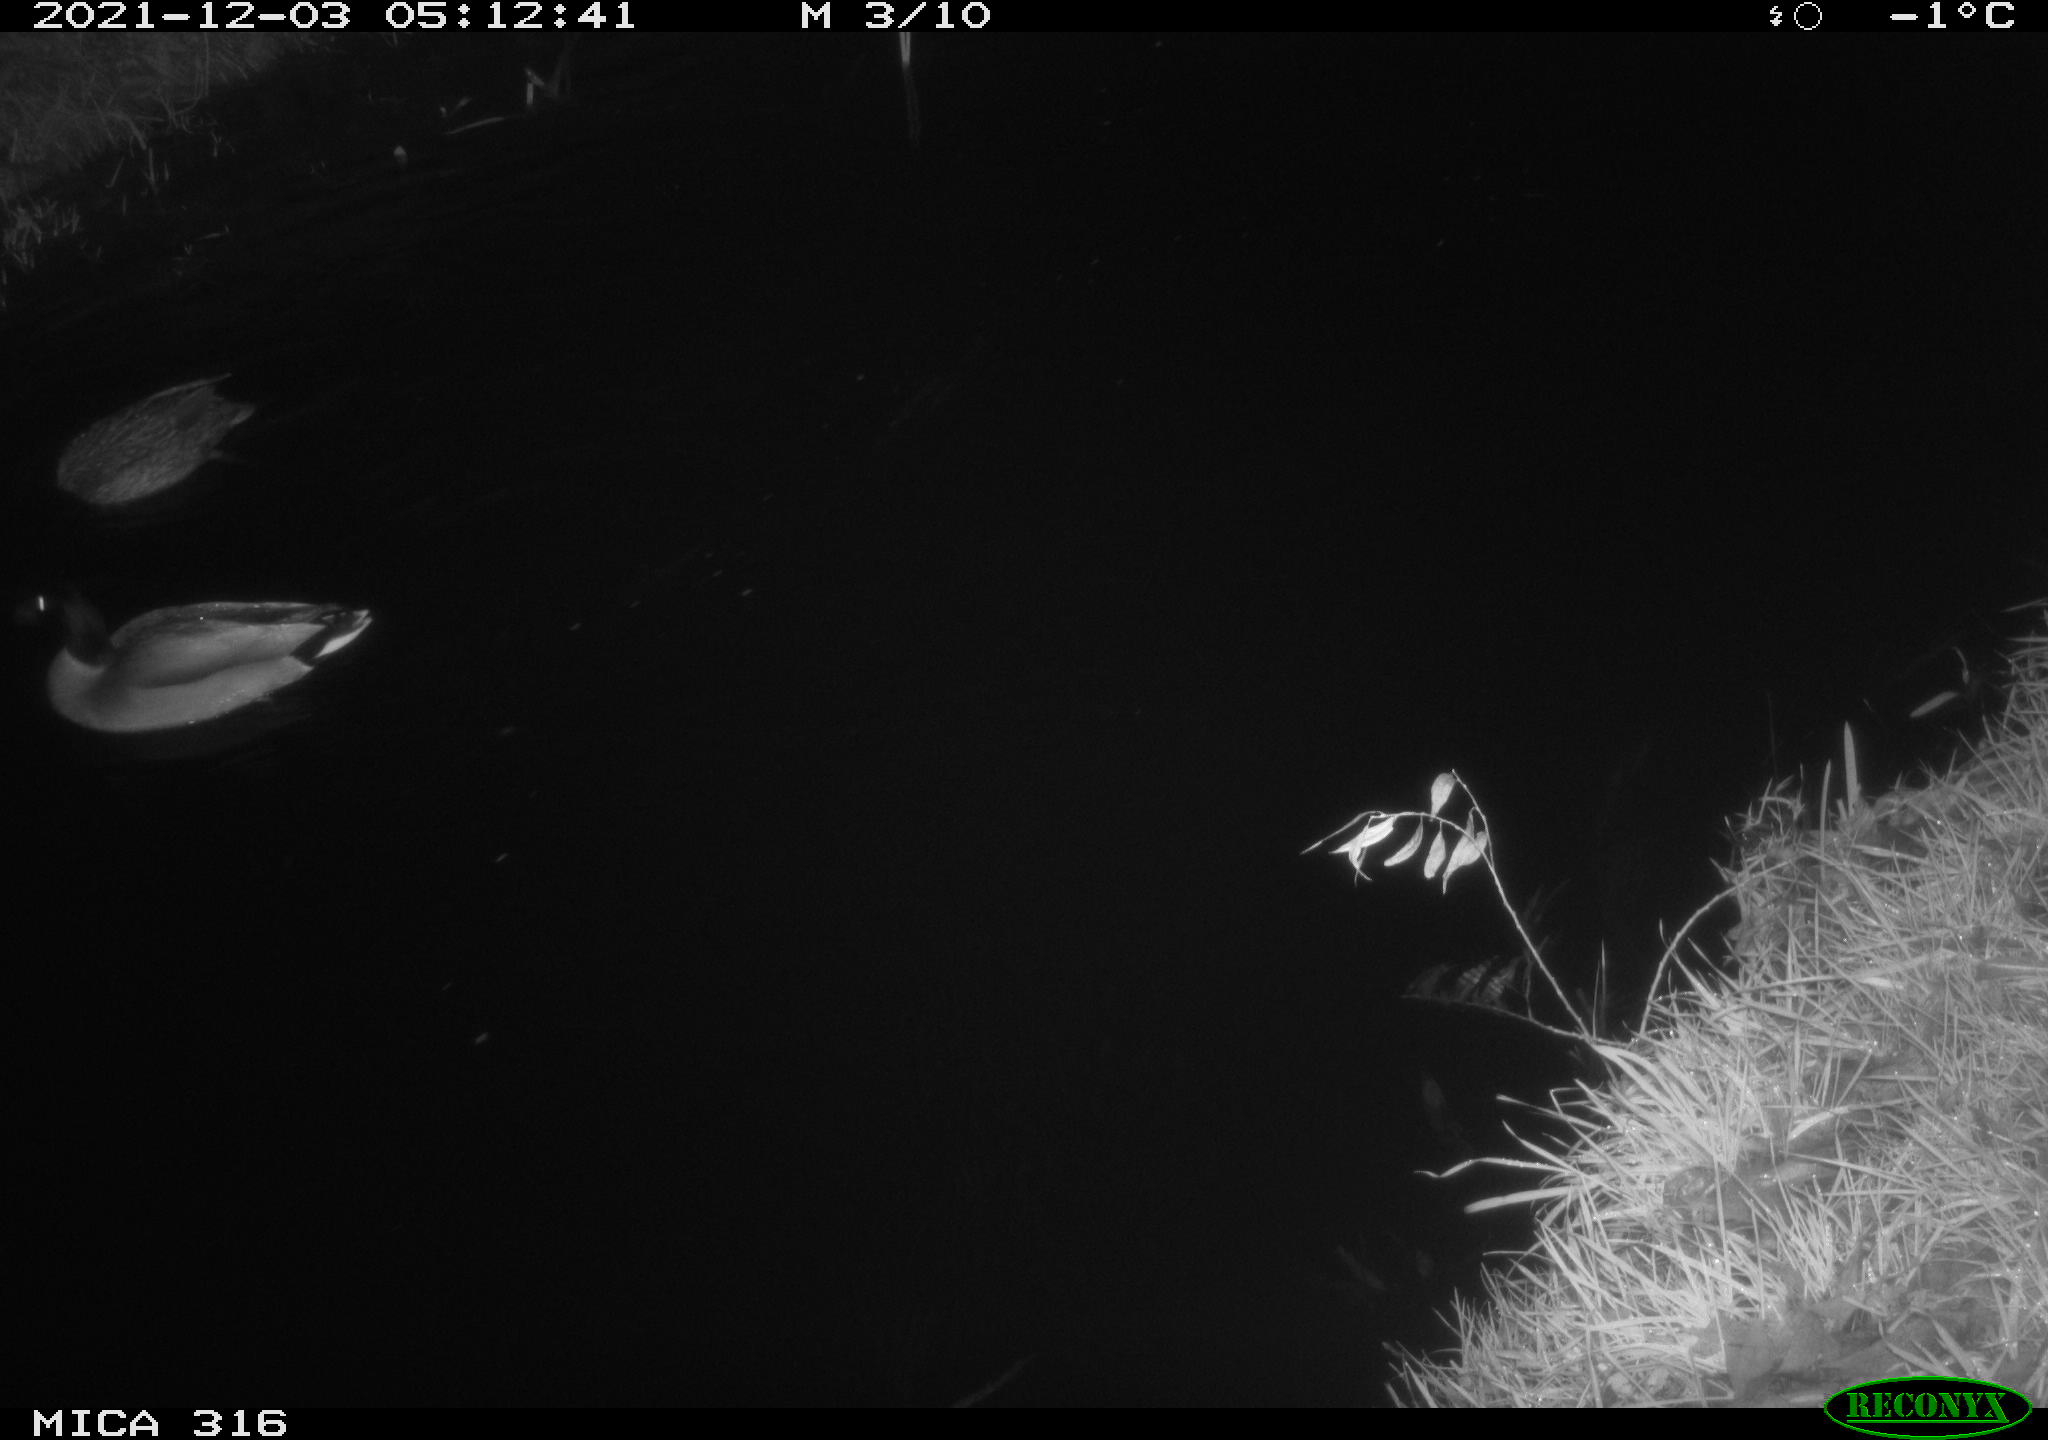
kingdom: Animalia
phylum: Chordata
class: Aves
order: Anseriformes
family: Anatidae
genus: Anas
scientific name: Anas platyrhynchos
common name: Mallard
